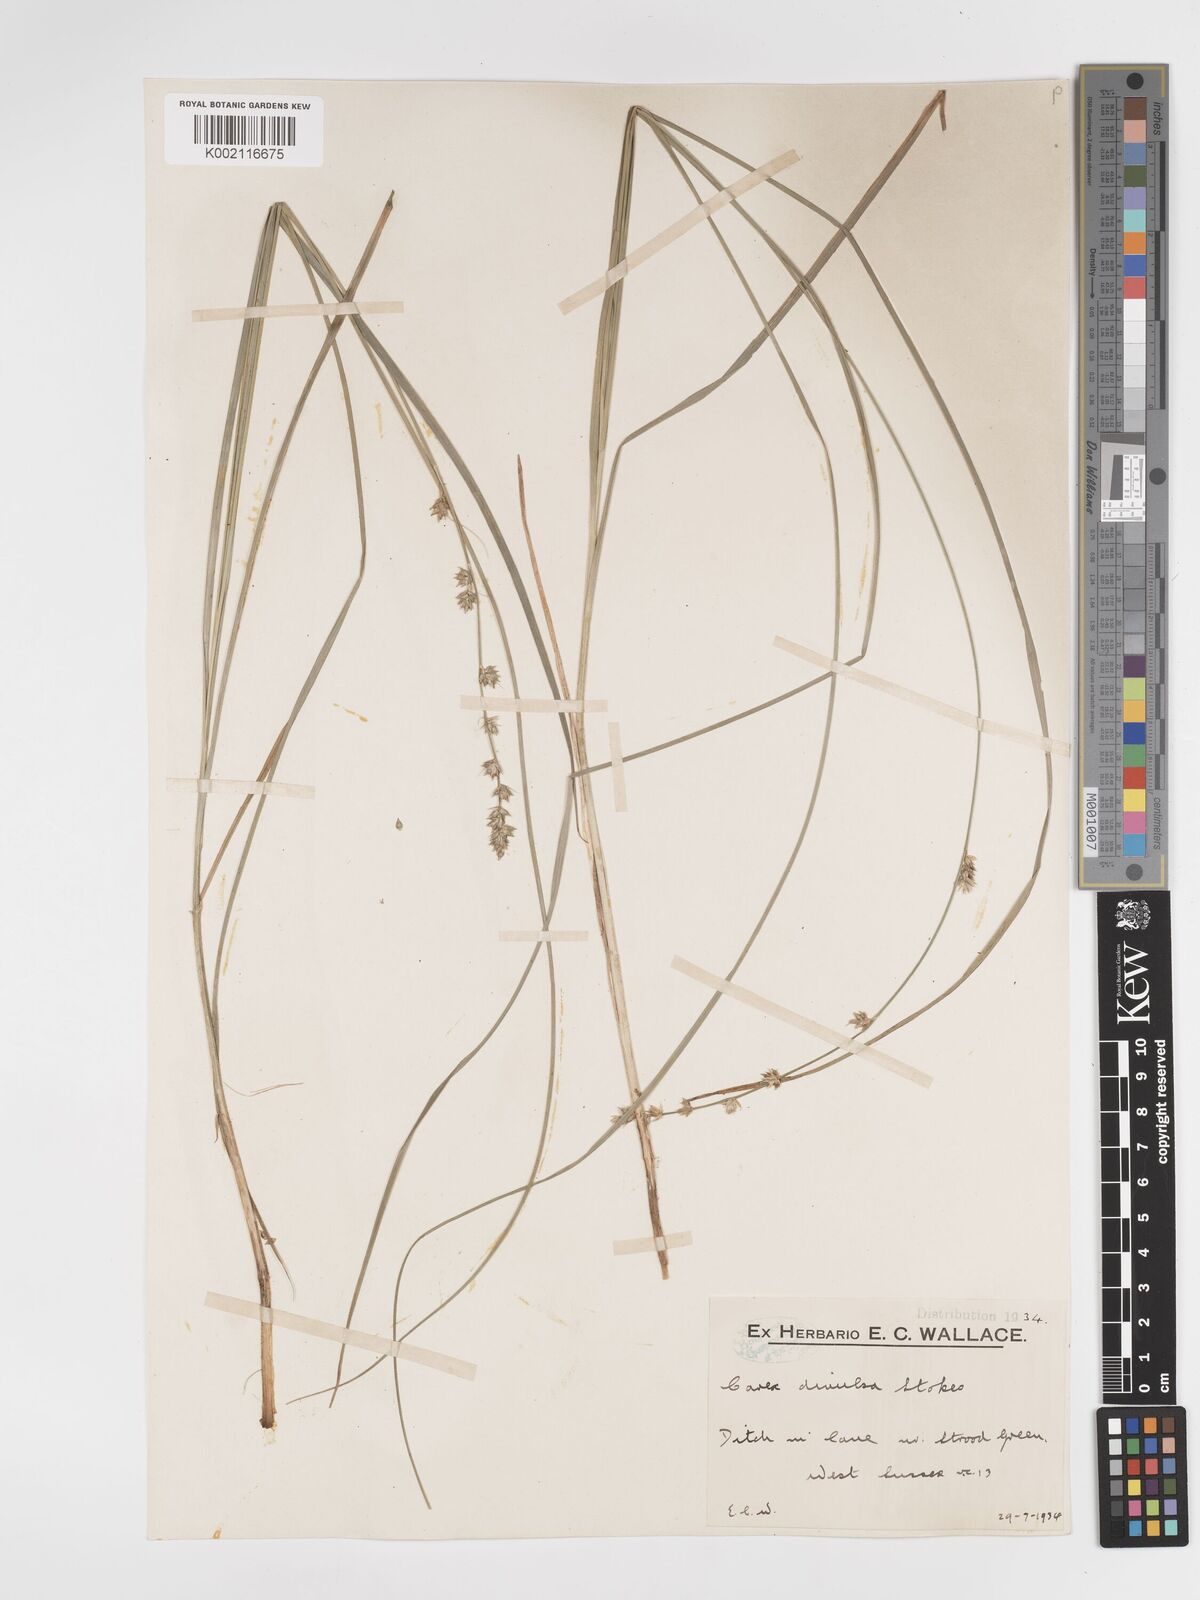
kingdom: Plantae
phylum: Tracheophyta
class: Liliopsida
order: Poales
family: Cyperaceae
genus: Carex
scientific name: Carex divulsa
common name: Grassland sedge
